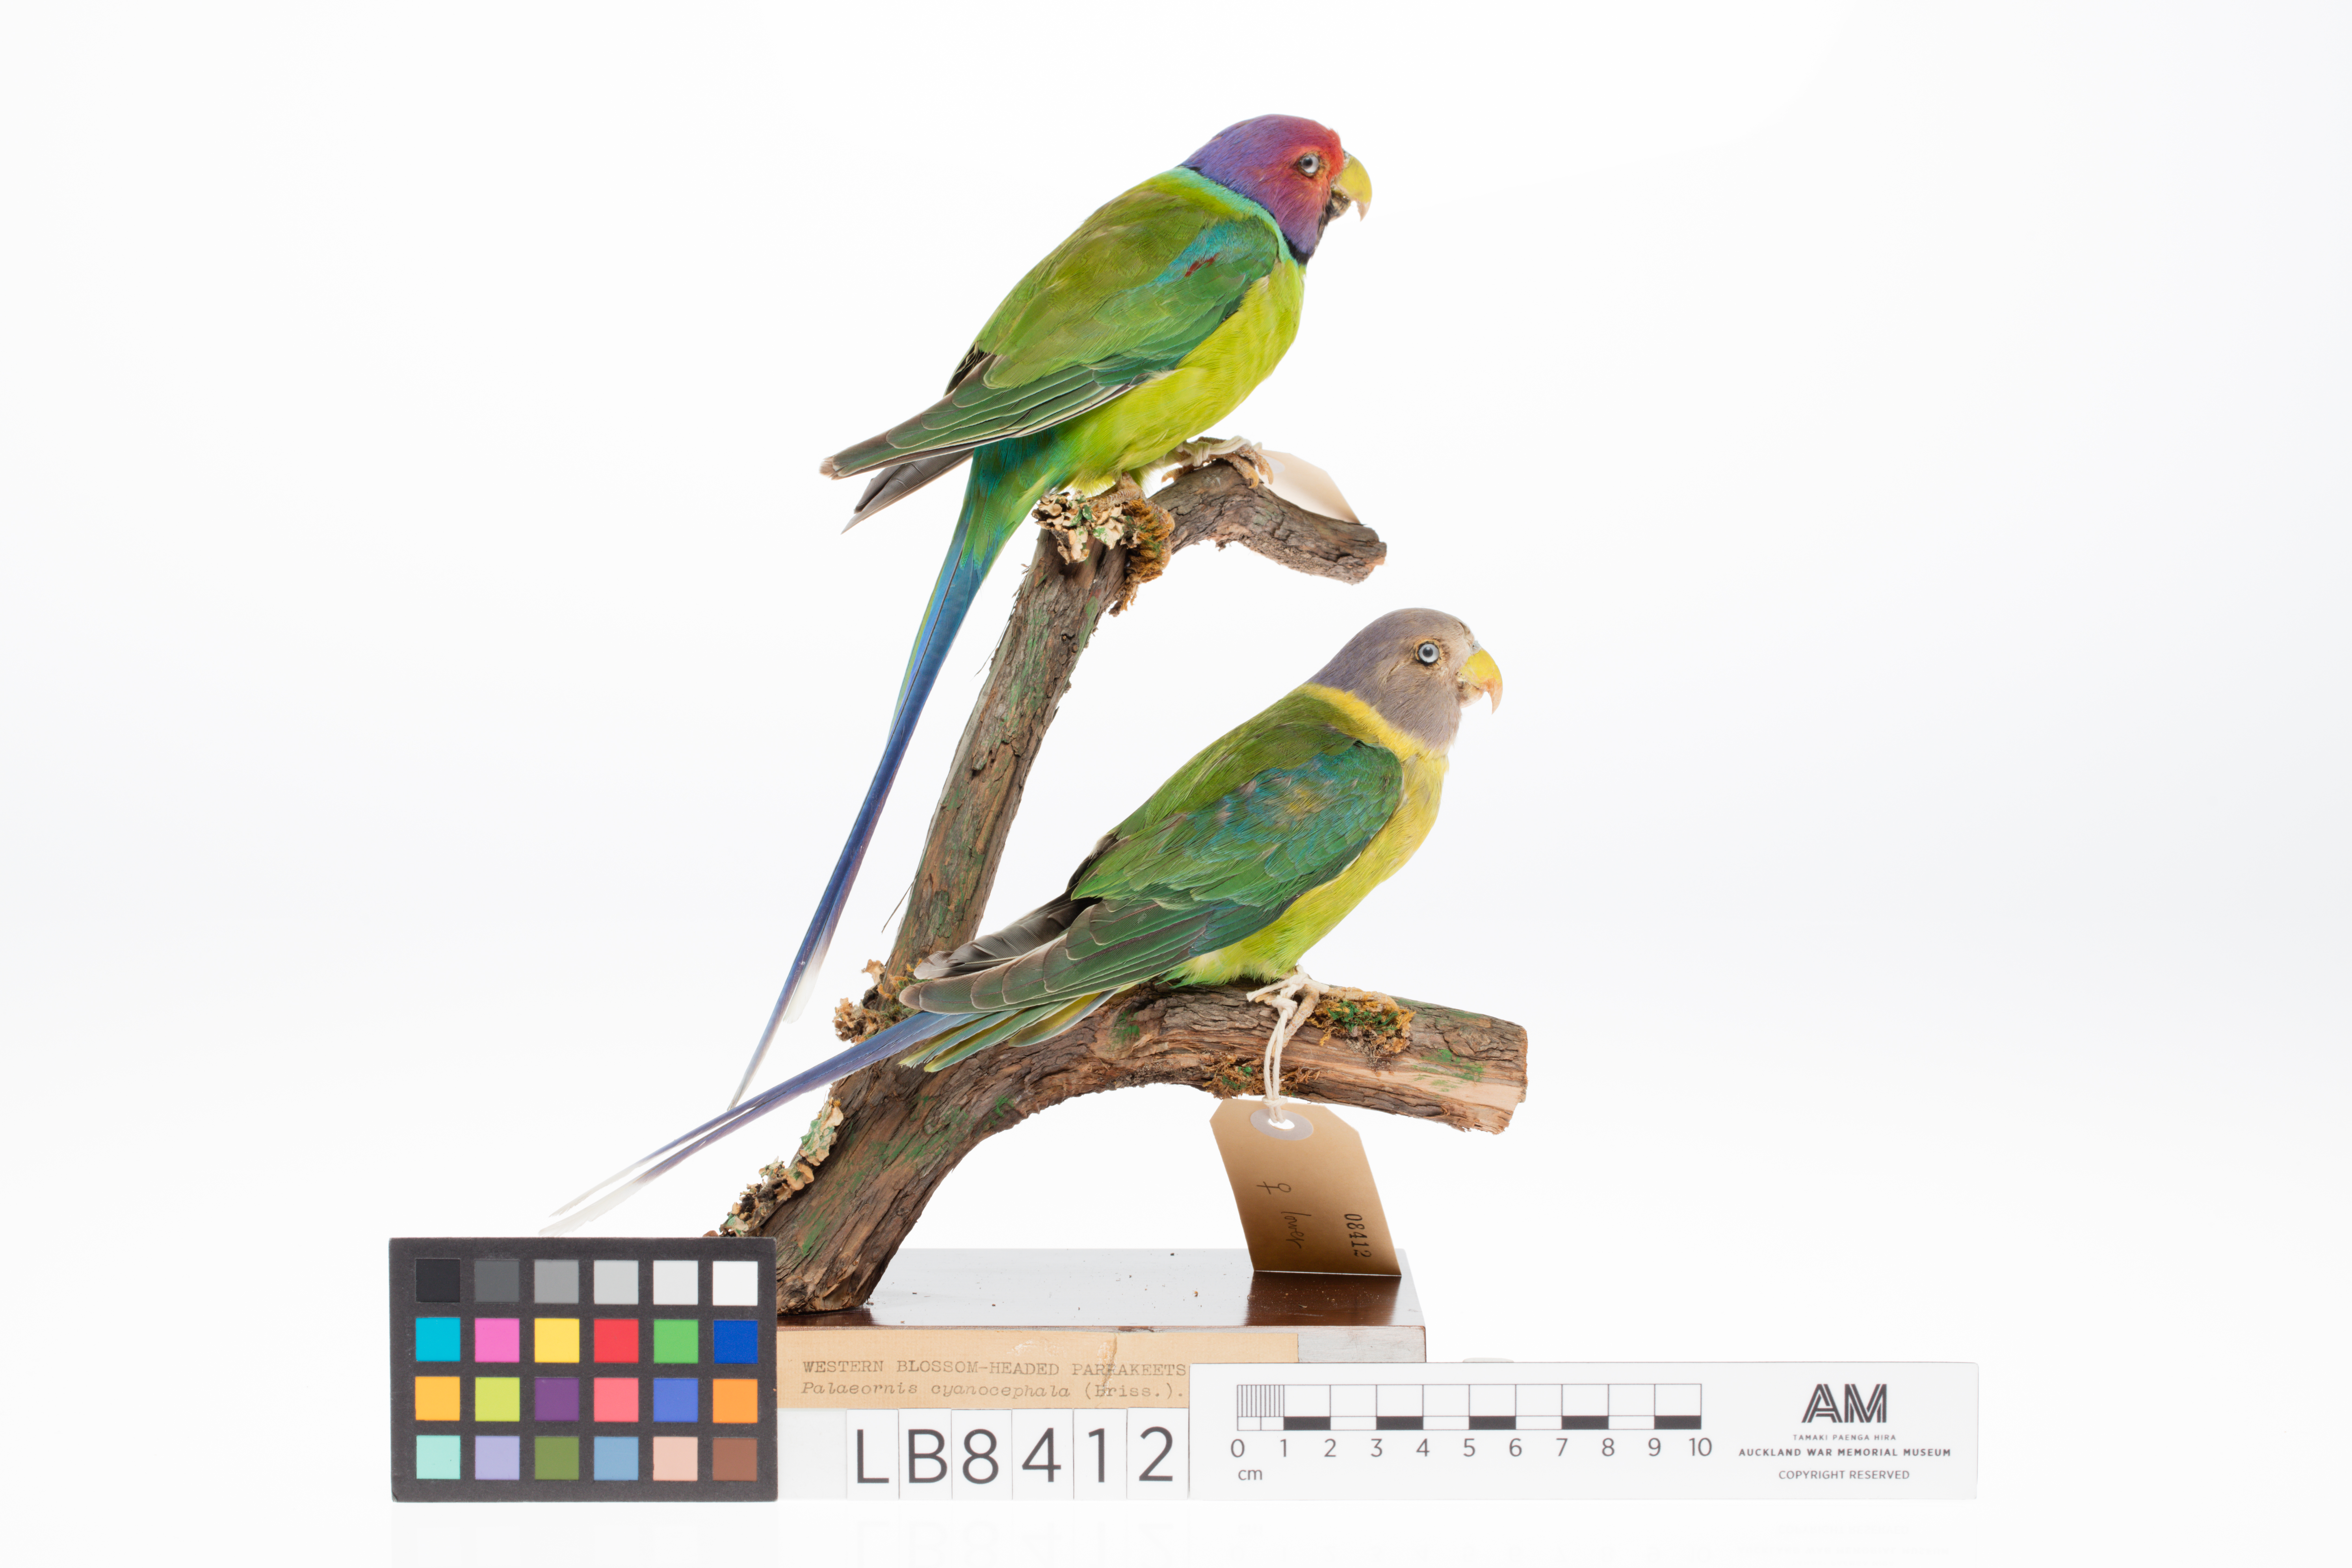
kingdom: Animalia
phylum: Chordata
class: Aves
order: Psittaciformes
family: Psittacidae
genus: Psittacula
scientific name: Psittacula cyanocephala
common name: Plum-headed parakeet
